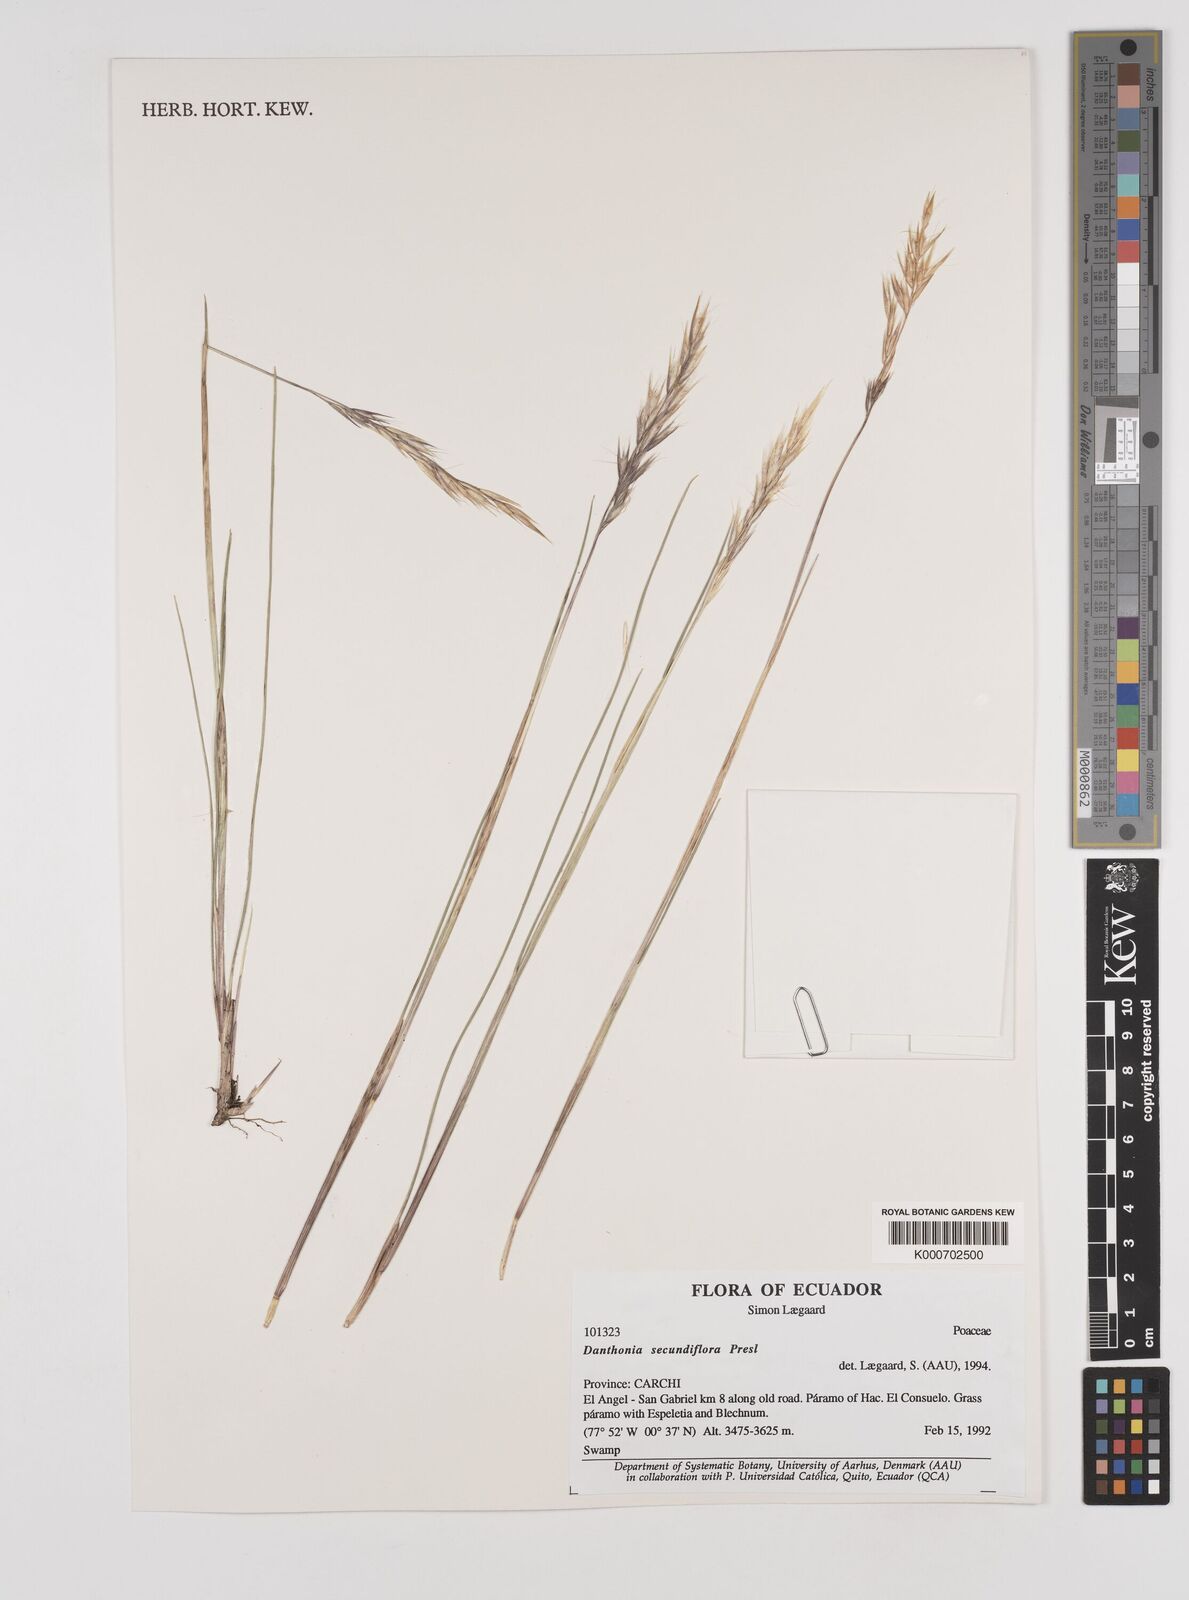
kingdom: Plantae
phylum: Tracheophyta
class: Liliopsida
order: Poales
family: Poaceae
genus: Danthonia
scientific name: Danthonia secundiflora
